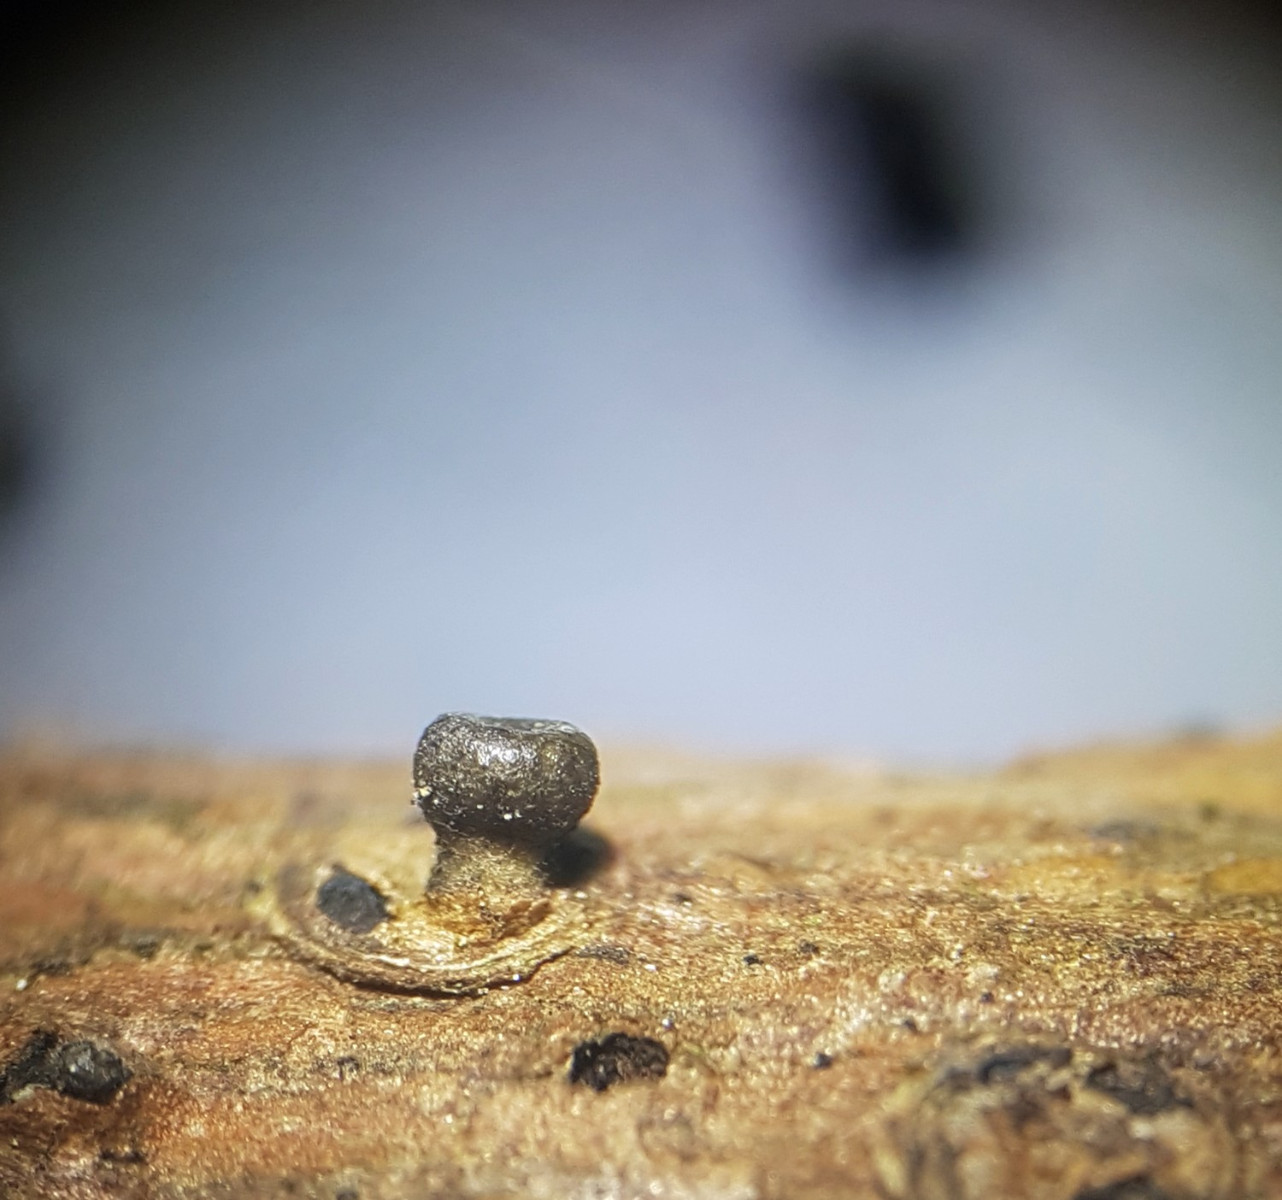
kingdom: Fungi
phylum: Ascomycota
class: Leotiomycetes
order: Helotiales
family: Rutstroemiaceae
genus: Rutstroemia
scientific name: Rutstroemia elatina
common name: ædelgran-brunskive
